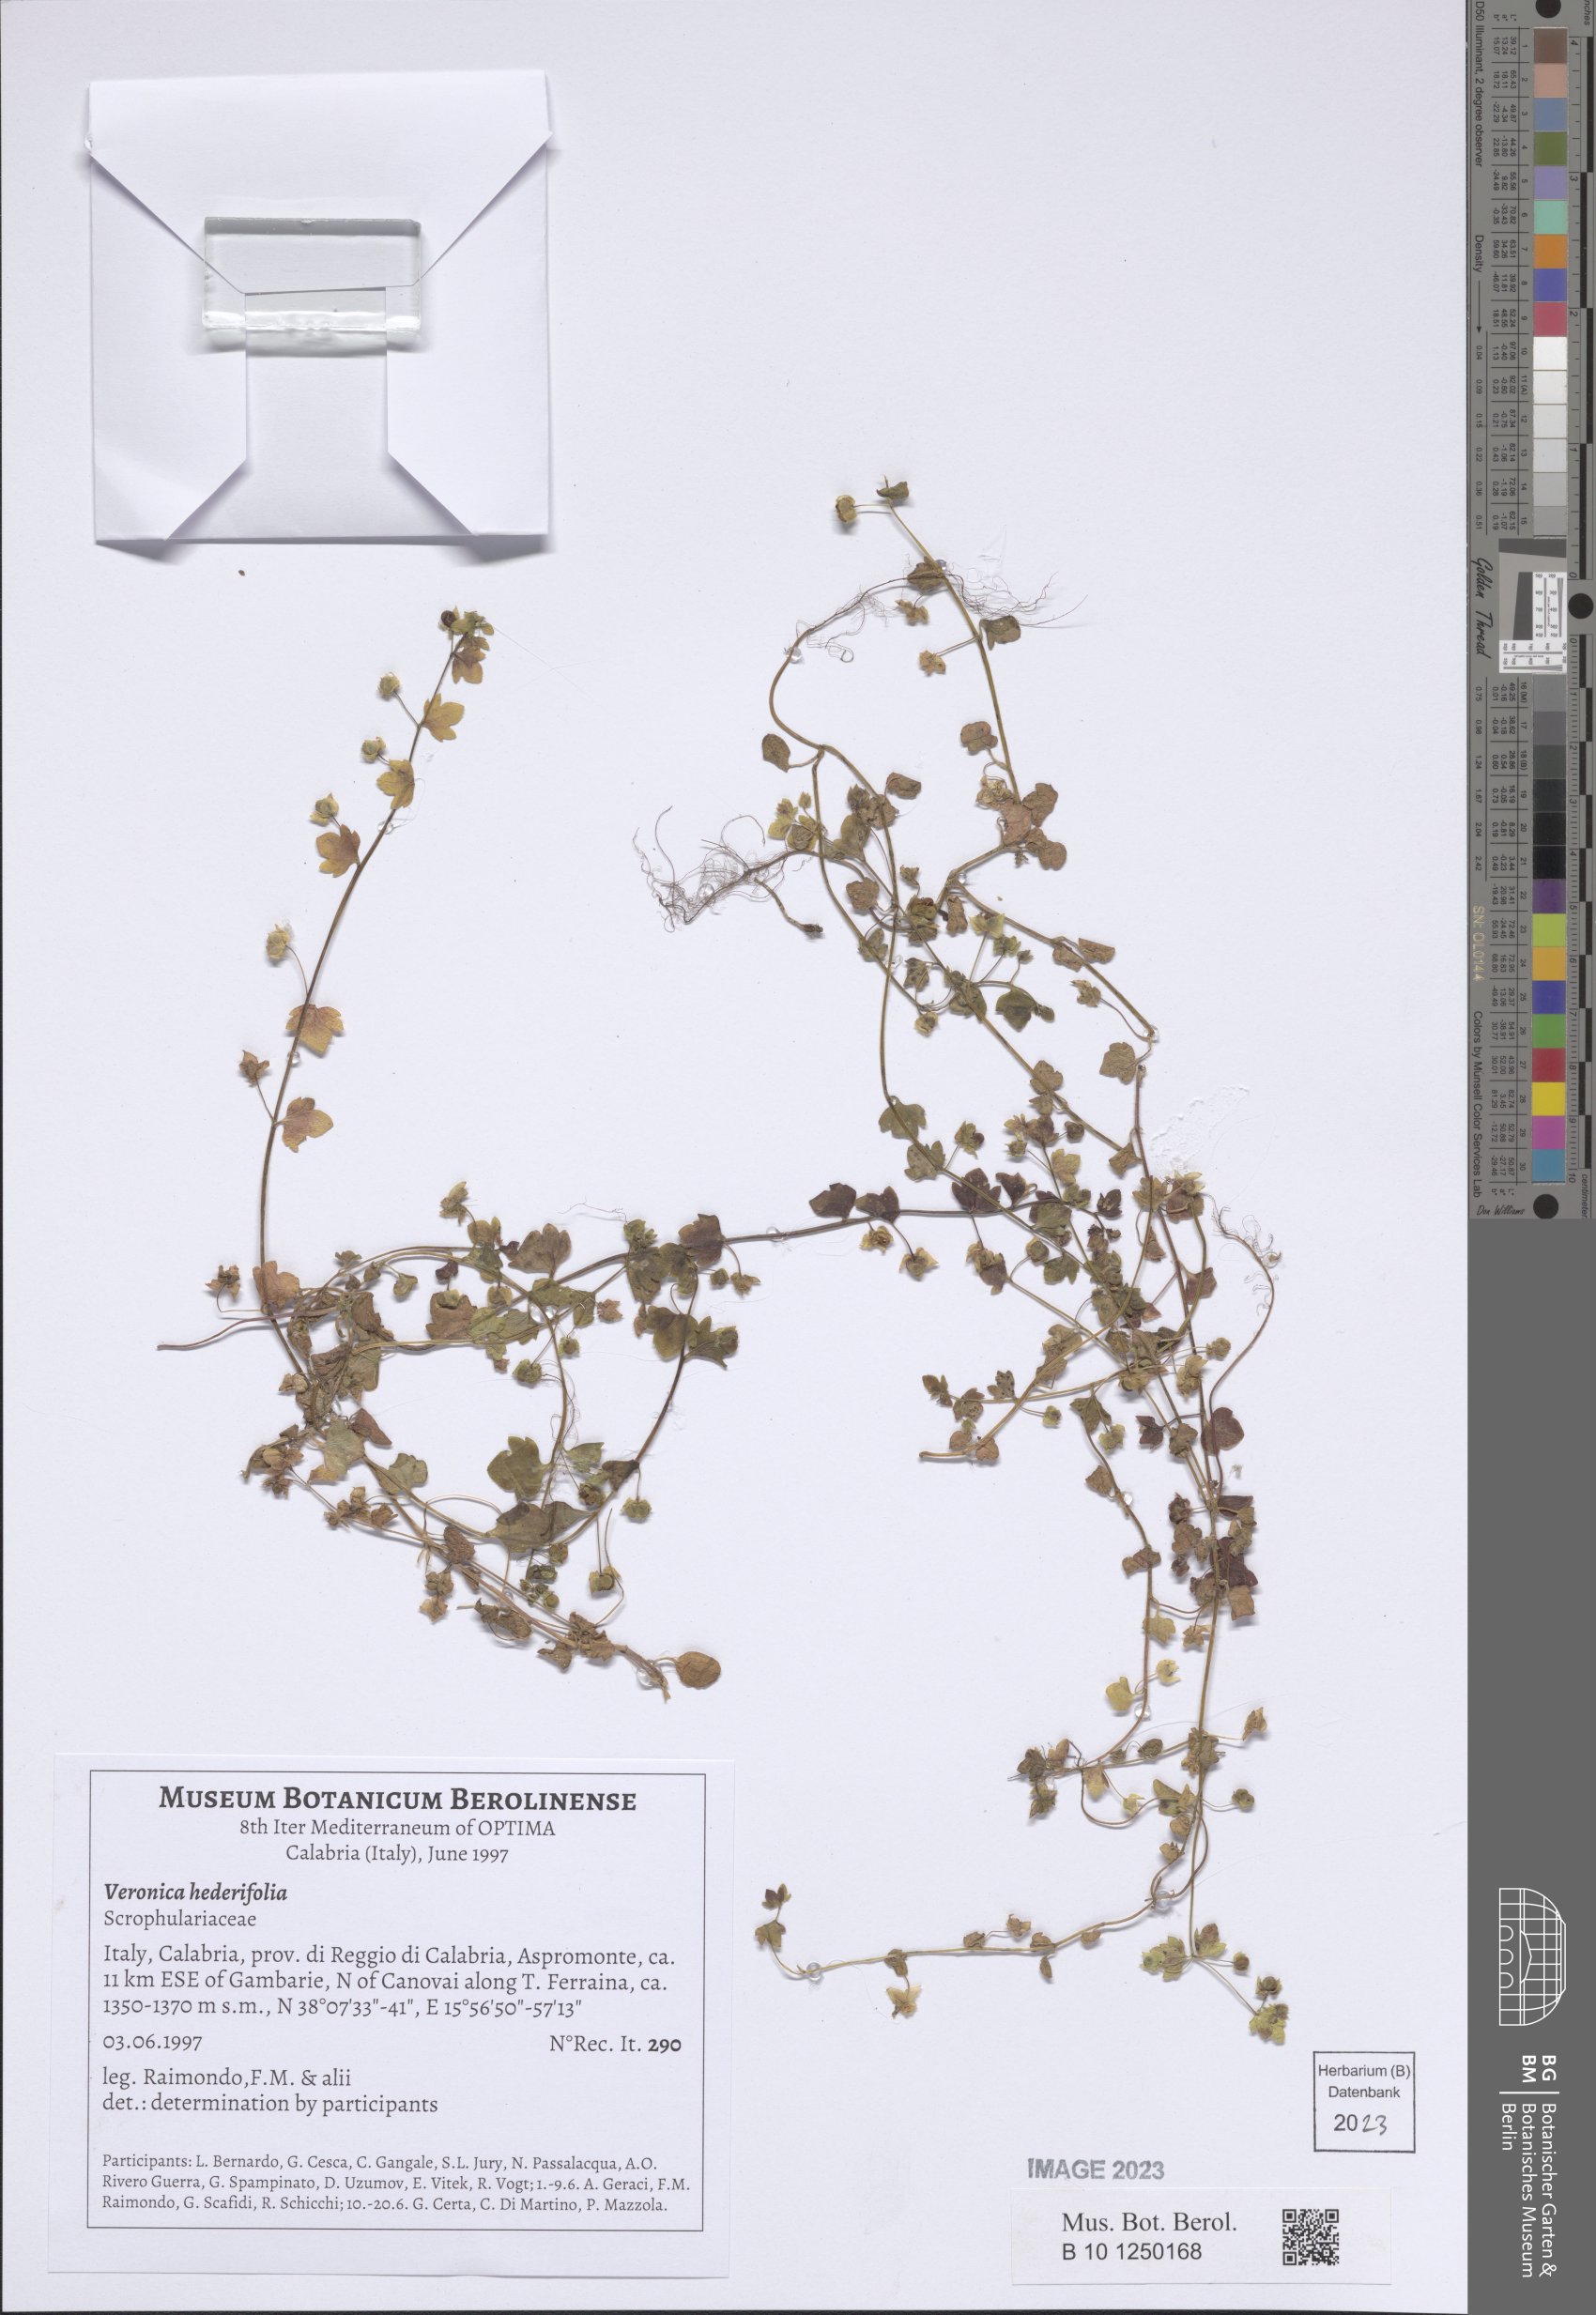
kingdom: Plantae
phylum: Tracheophyta
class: Magnoliopsida
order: Lamiales
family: Plantaginaceae
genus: Veronica
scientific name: Veronica hederifolia
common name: Ivy-leaved speedwell
